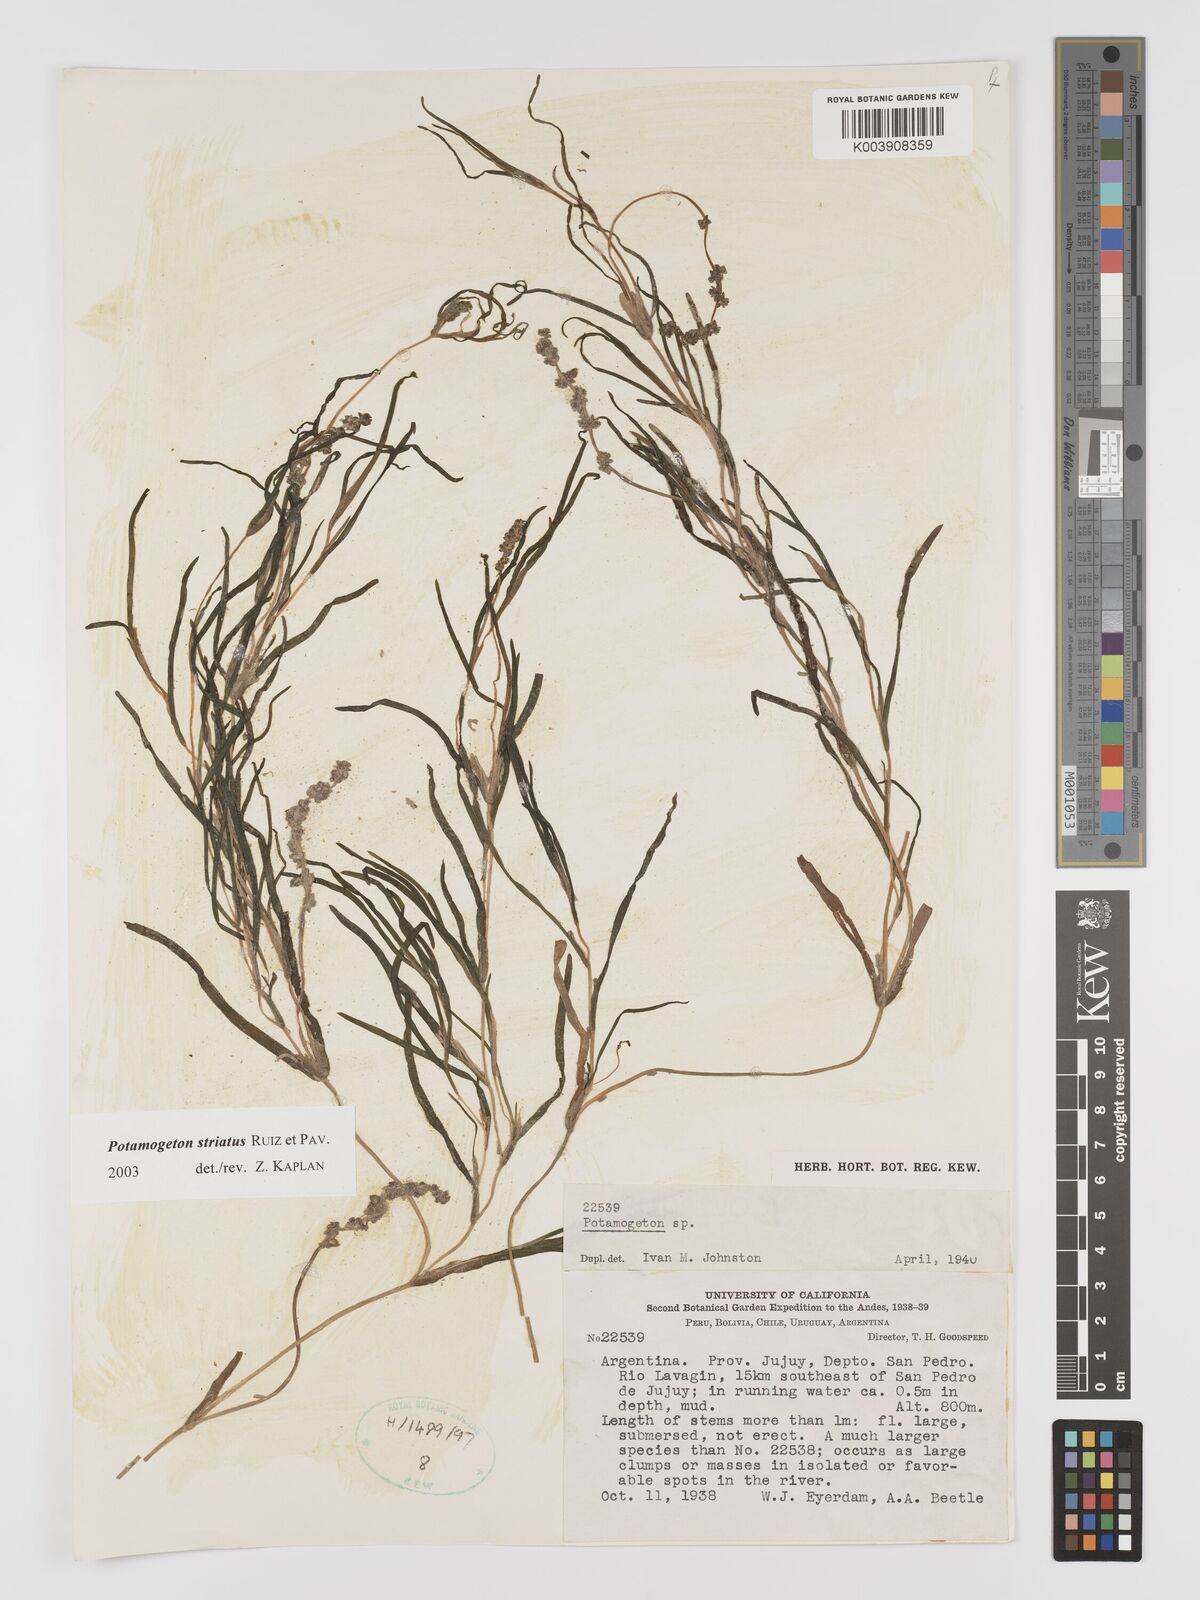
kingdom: Plantae
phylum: Tracheophyta
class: Liliopsida
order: Alismatales
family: Potamogetonaceae
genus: Stuckenia
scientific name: Stuckenia striata
